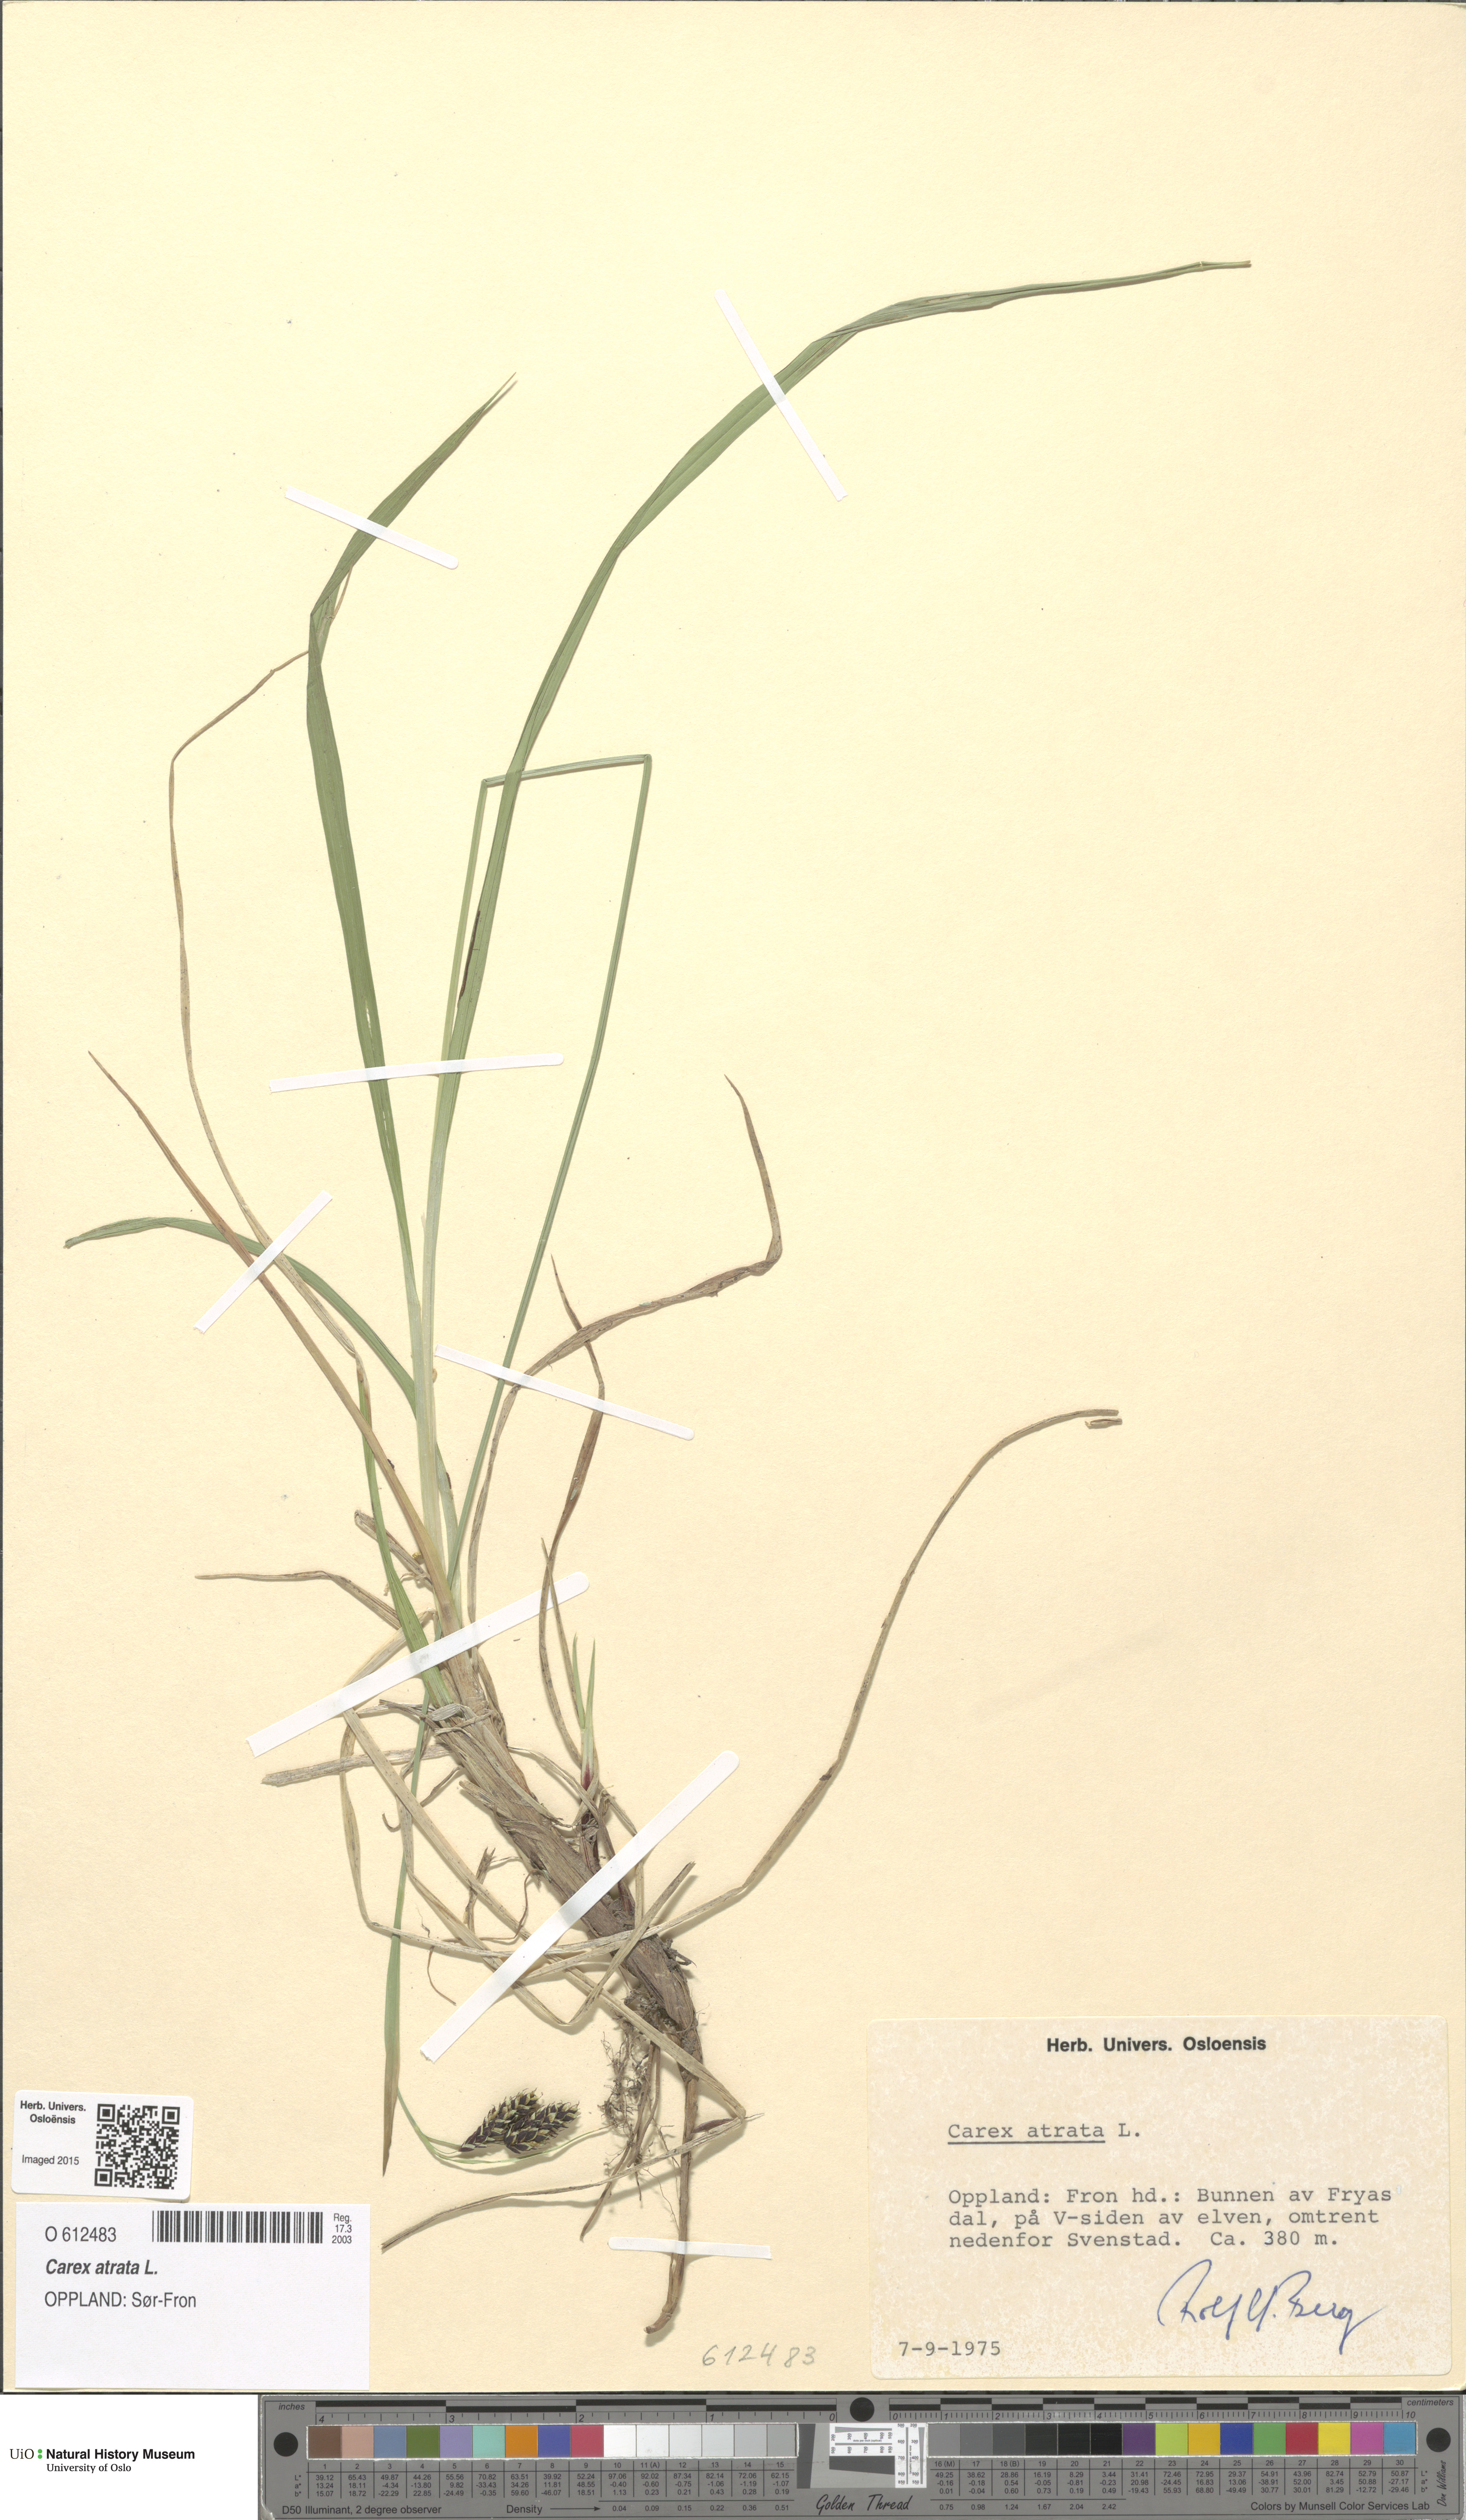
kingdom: Plantae
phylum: Tracheophyta
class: Liliopsida
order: Poales
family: Cyperaceae
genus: Carex
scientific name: Carex atrata
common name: Black alpine sedge
